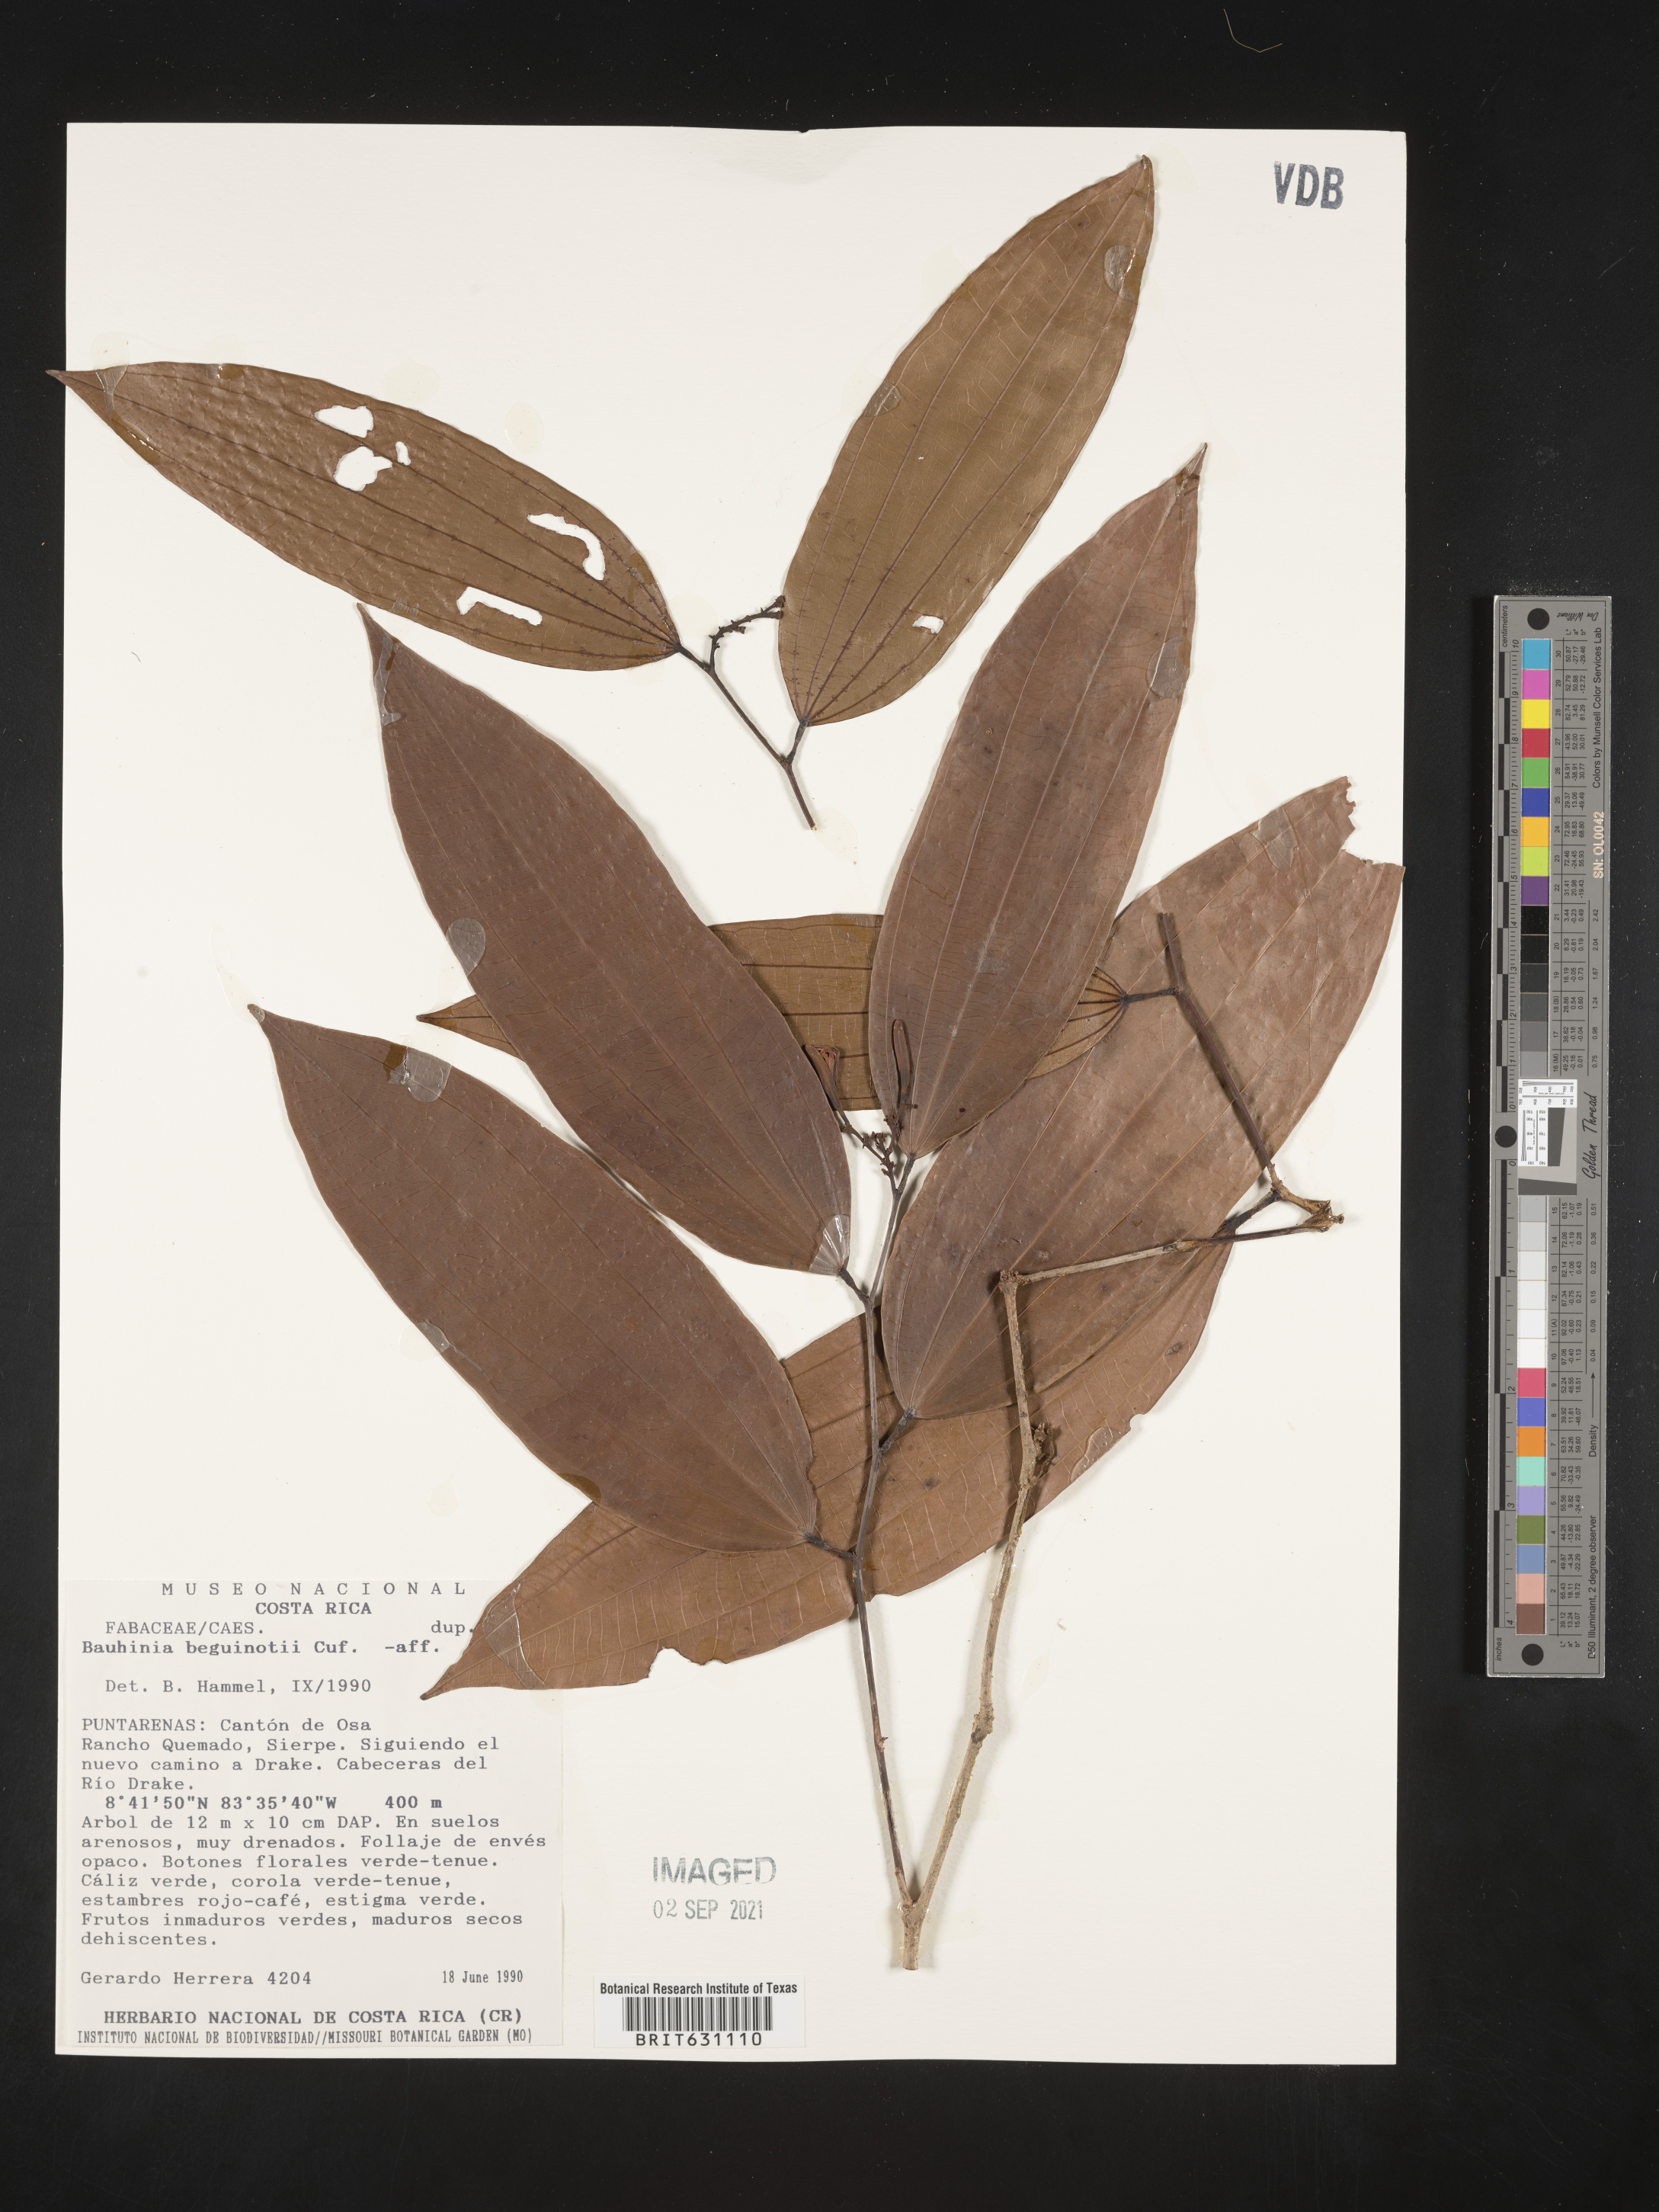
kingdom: Plantae
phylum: Tracheophyta
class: Magnoliopsida
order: Fabales
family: Fabaceae
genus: Bauhinia
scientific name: Bauhinia
